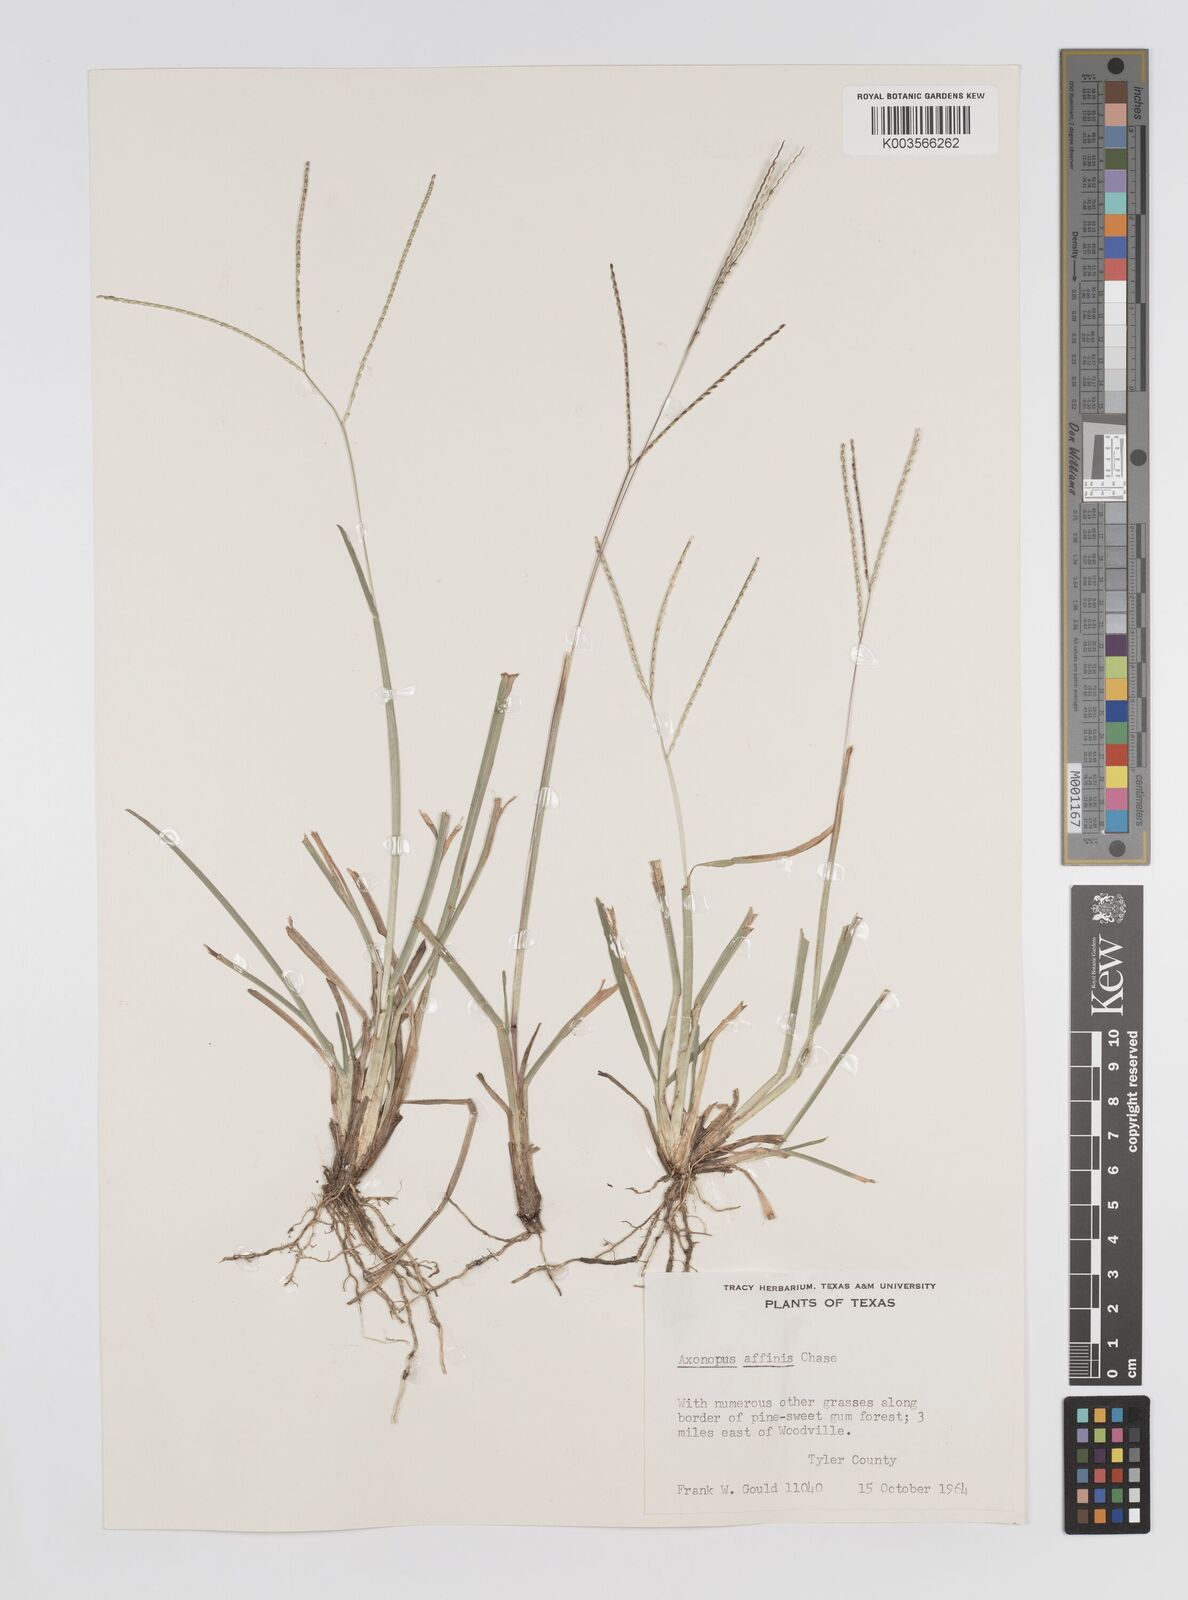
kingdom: Plantae
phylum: Tracheophyta
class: Liliopsida
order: Poales
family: Poaceae
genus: Axonopus
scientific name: Axonopus fissifolius
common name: Common carpetgrass
